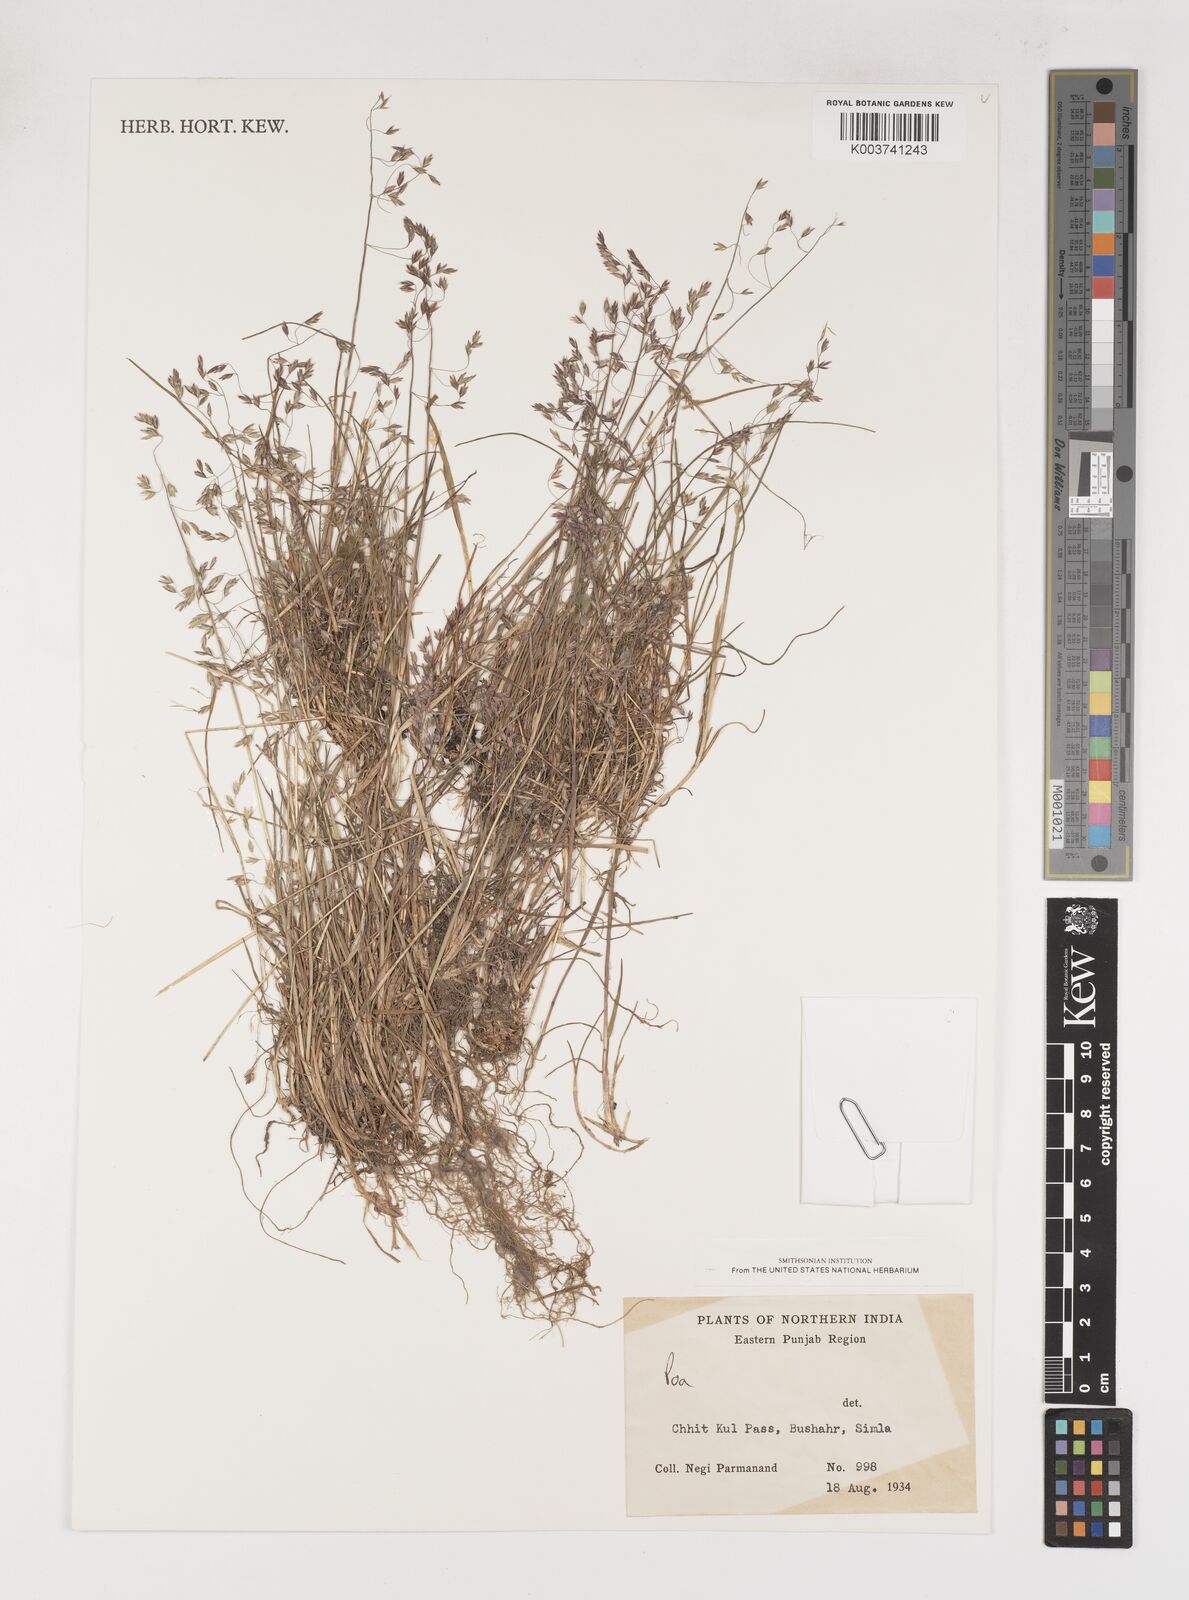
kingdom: Plantae
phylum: Tracheophyta
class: Liliopsida
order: Poales
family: Poaceae
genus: Poa
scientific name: Poa
